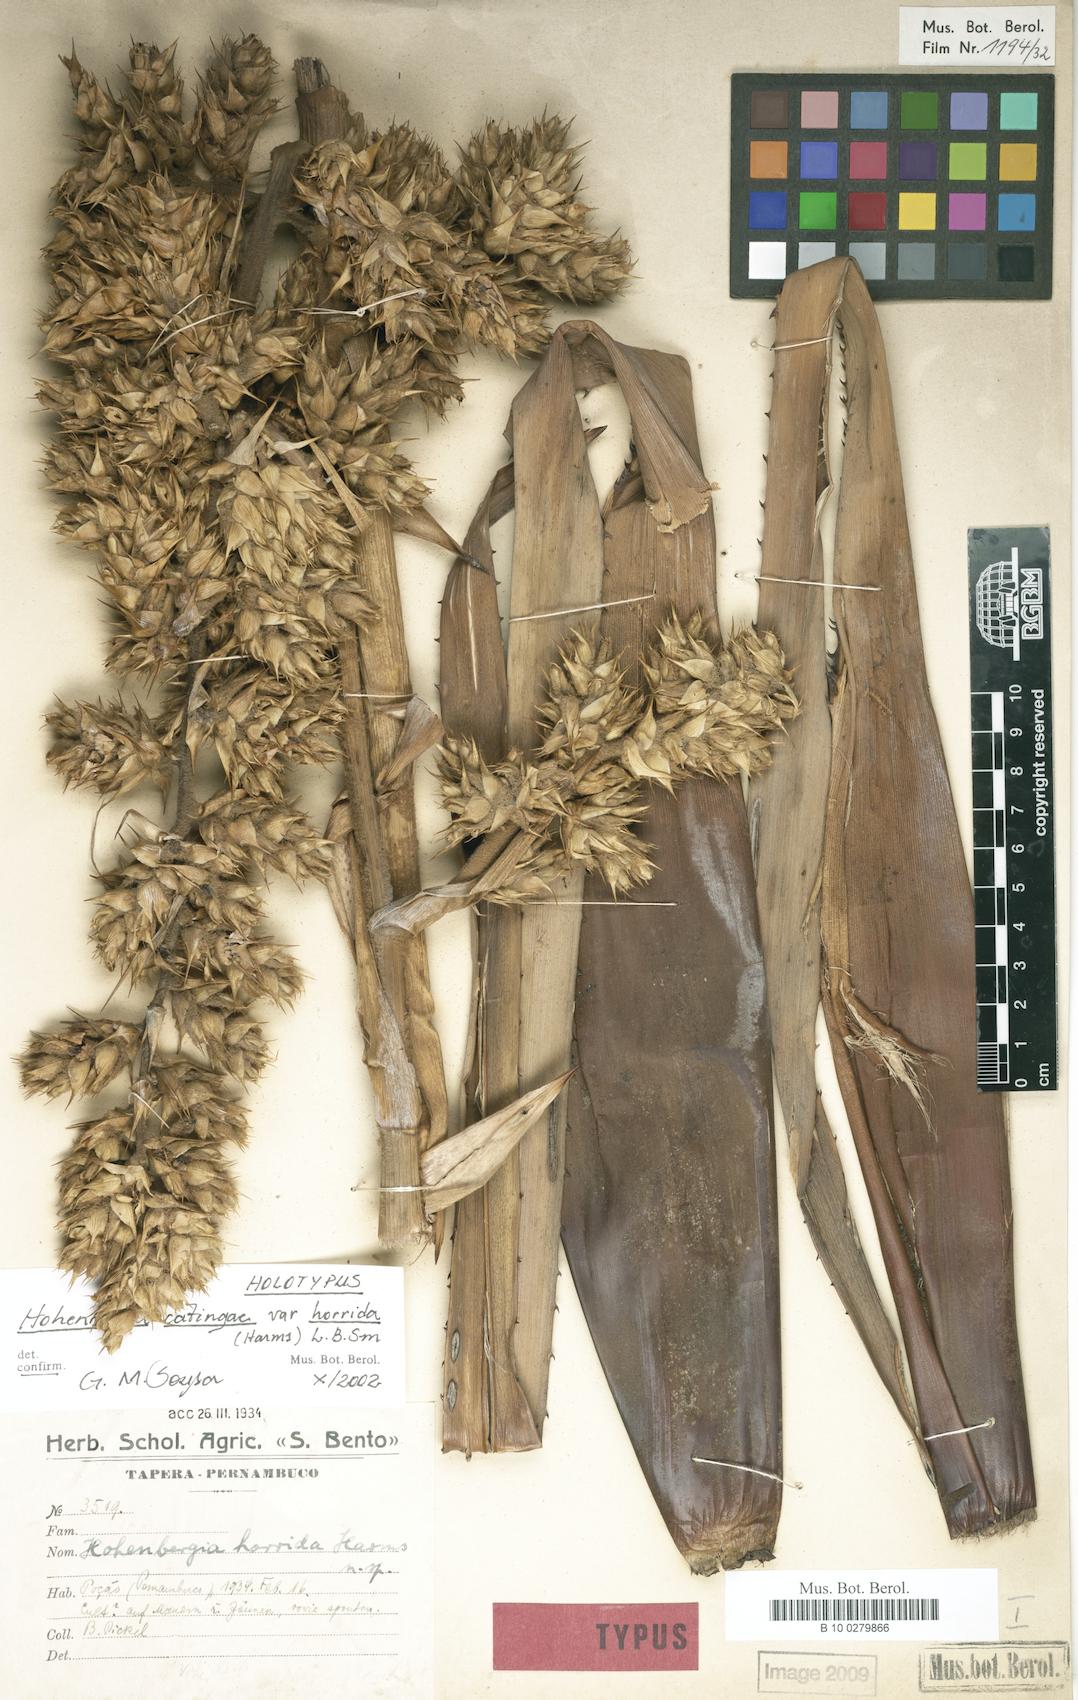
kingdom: Plantae
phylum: Tracheophyta
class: Liliopsida
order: Poales
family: Bromeliaceae
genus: Hohenbergia
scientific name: Hohenbergia horrida
